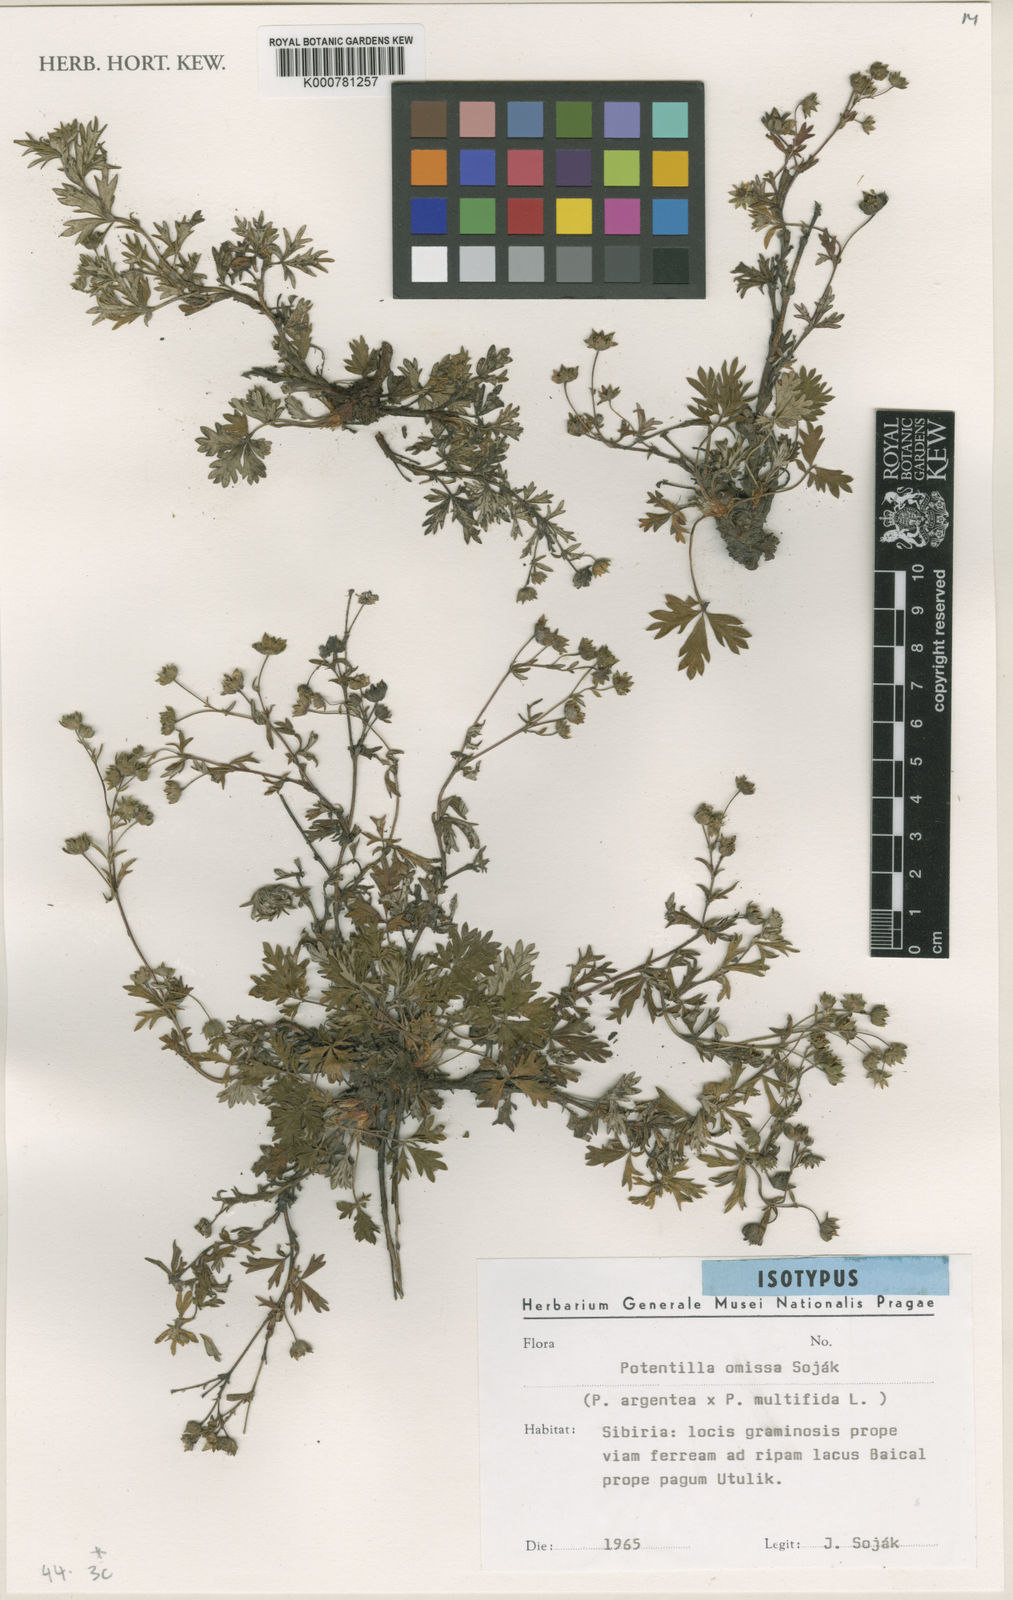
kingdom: Plantae
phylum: Tracheophyta
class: Magnoliopsida
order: Rosales
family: Rosaceae
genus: Potentilla
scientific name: Potentilla
